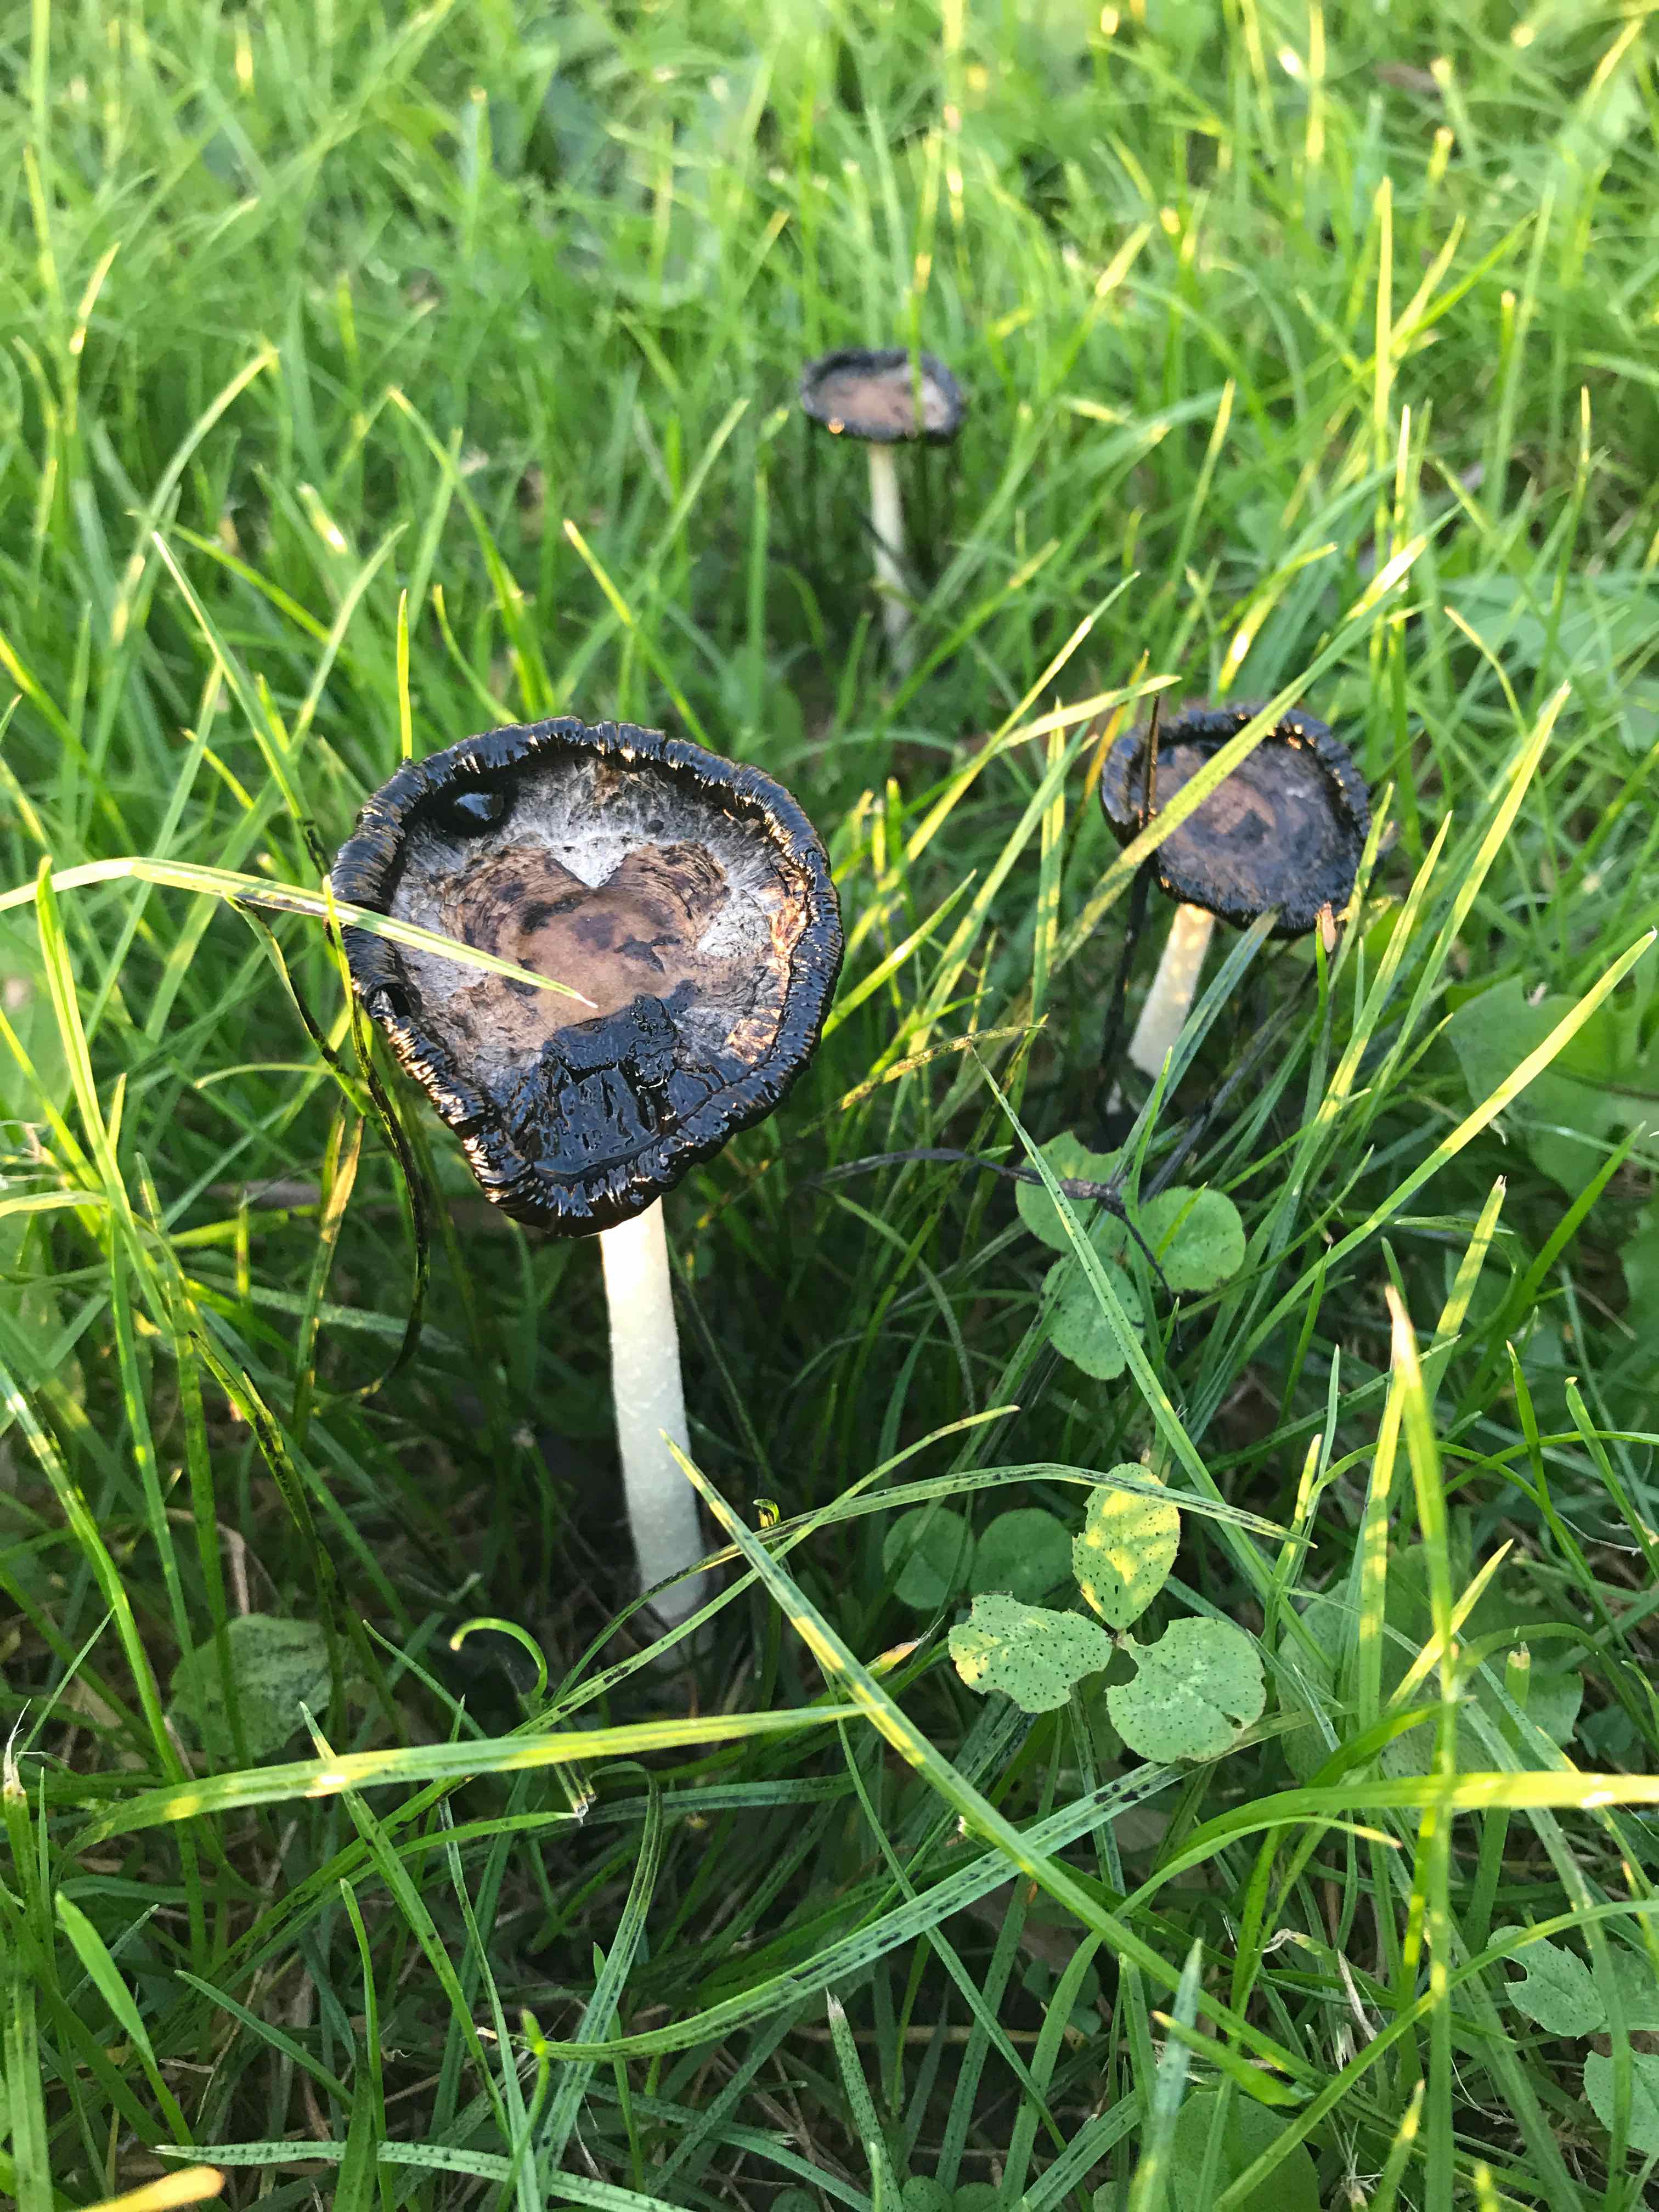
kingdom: Fungi
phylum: Basidiomycota
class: Agaricomycetes
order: Agaricales
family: Agaricaceae
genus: Coprinus
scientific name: Coprinus comatus
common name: stor parykhat
